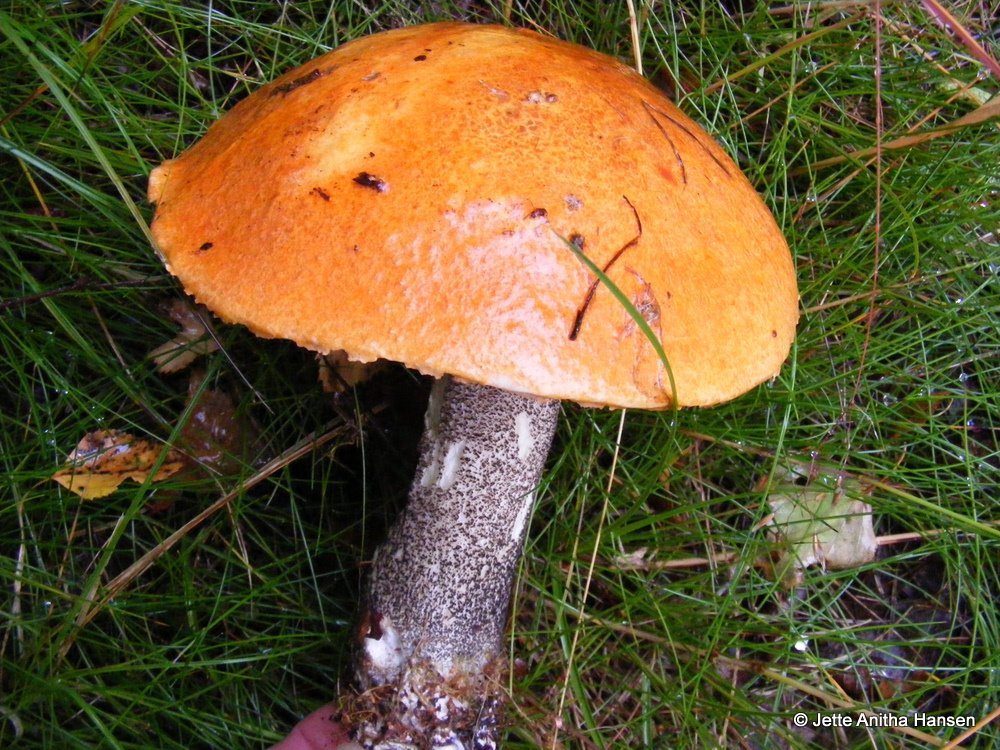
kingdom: Fungi
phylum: Basidiomycota
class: Agaricomycetes
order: Boletales
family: Boletaceae
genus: Leccinum
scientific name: Leccinum versipelle
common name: orange skælrørhat
